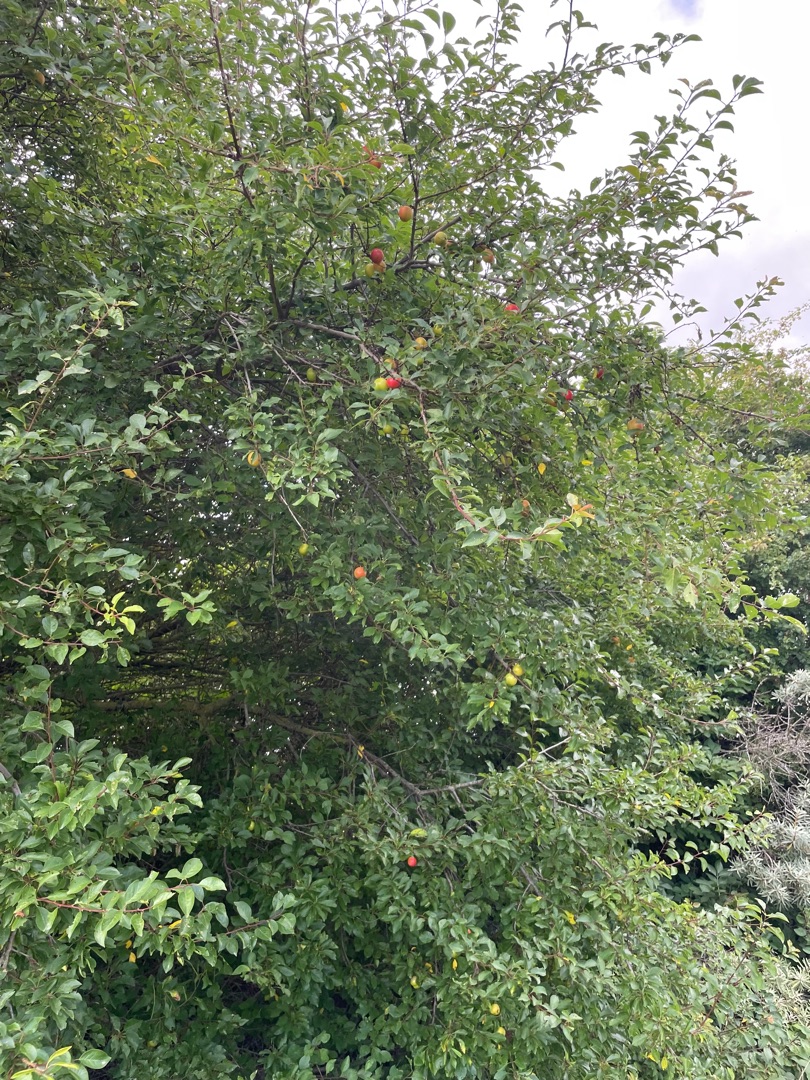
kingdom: Plantae
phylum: Tracheophyta
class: Magnoliopsida
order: Rosales
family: Rosaceae
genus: Prunus
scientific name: Prunus cerasifera
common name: Mirabel
